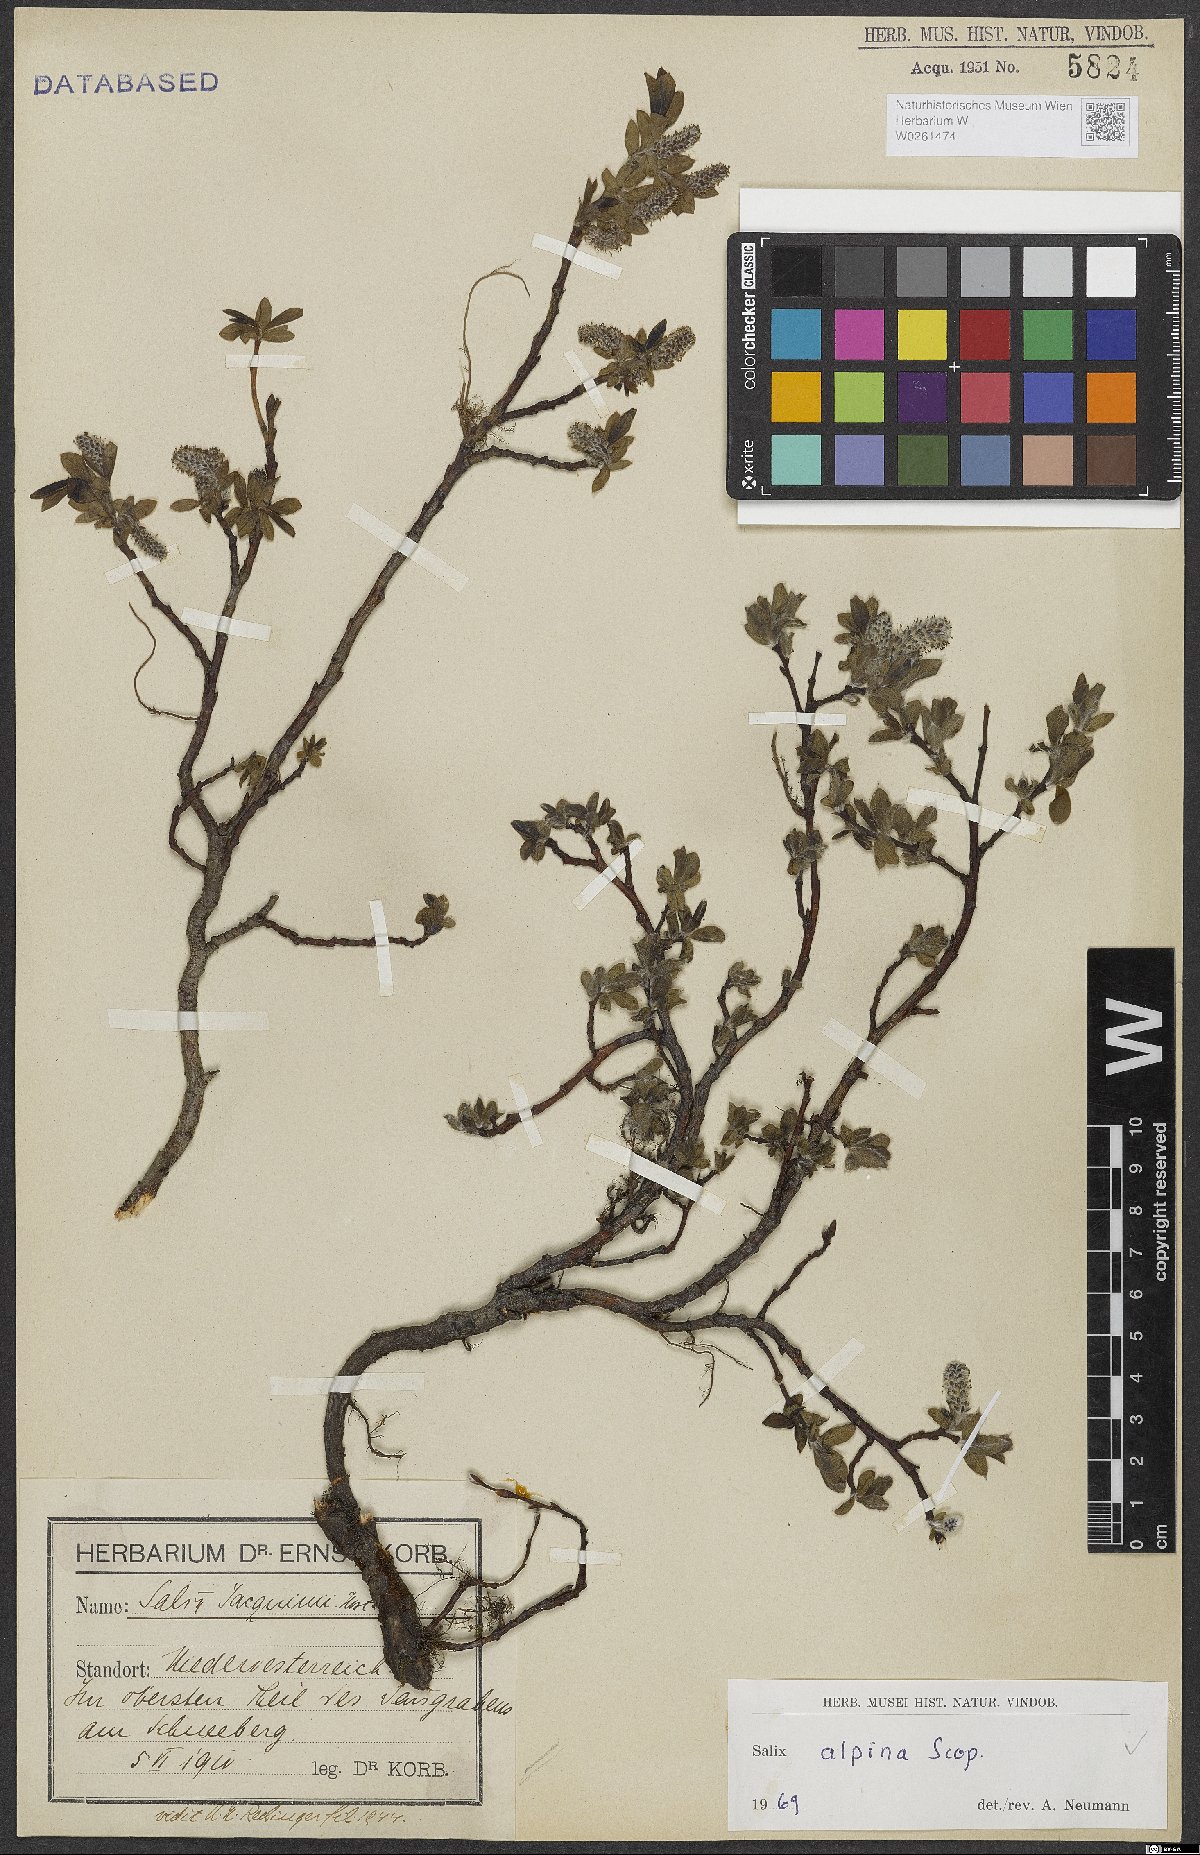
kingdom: Plantae
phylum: Tracheophyta
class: Magnoliopsida
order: Malpighiales
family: Salicaceae
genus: Salix
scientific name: Salix alpina
